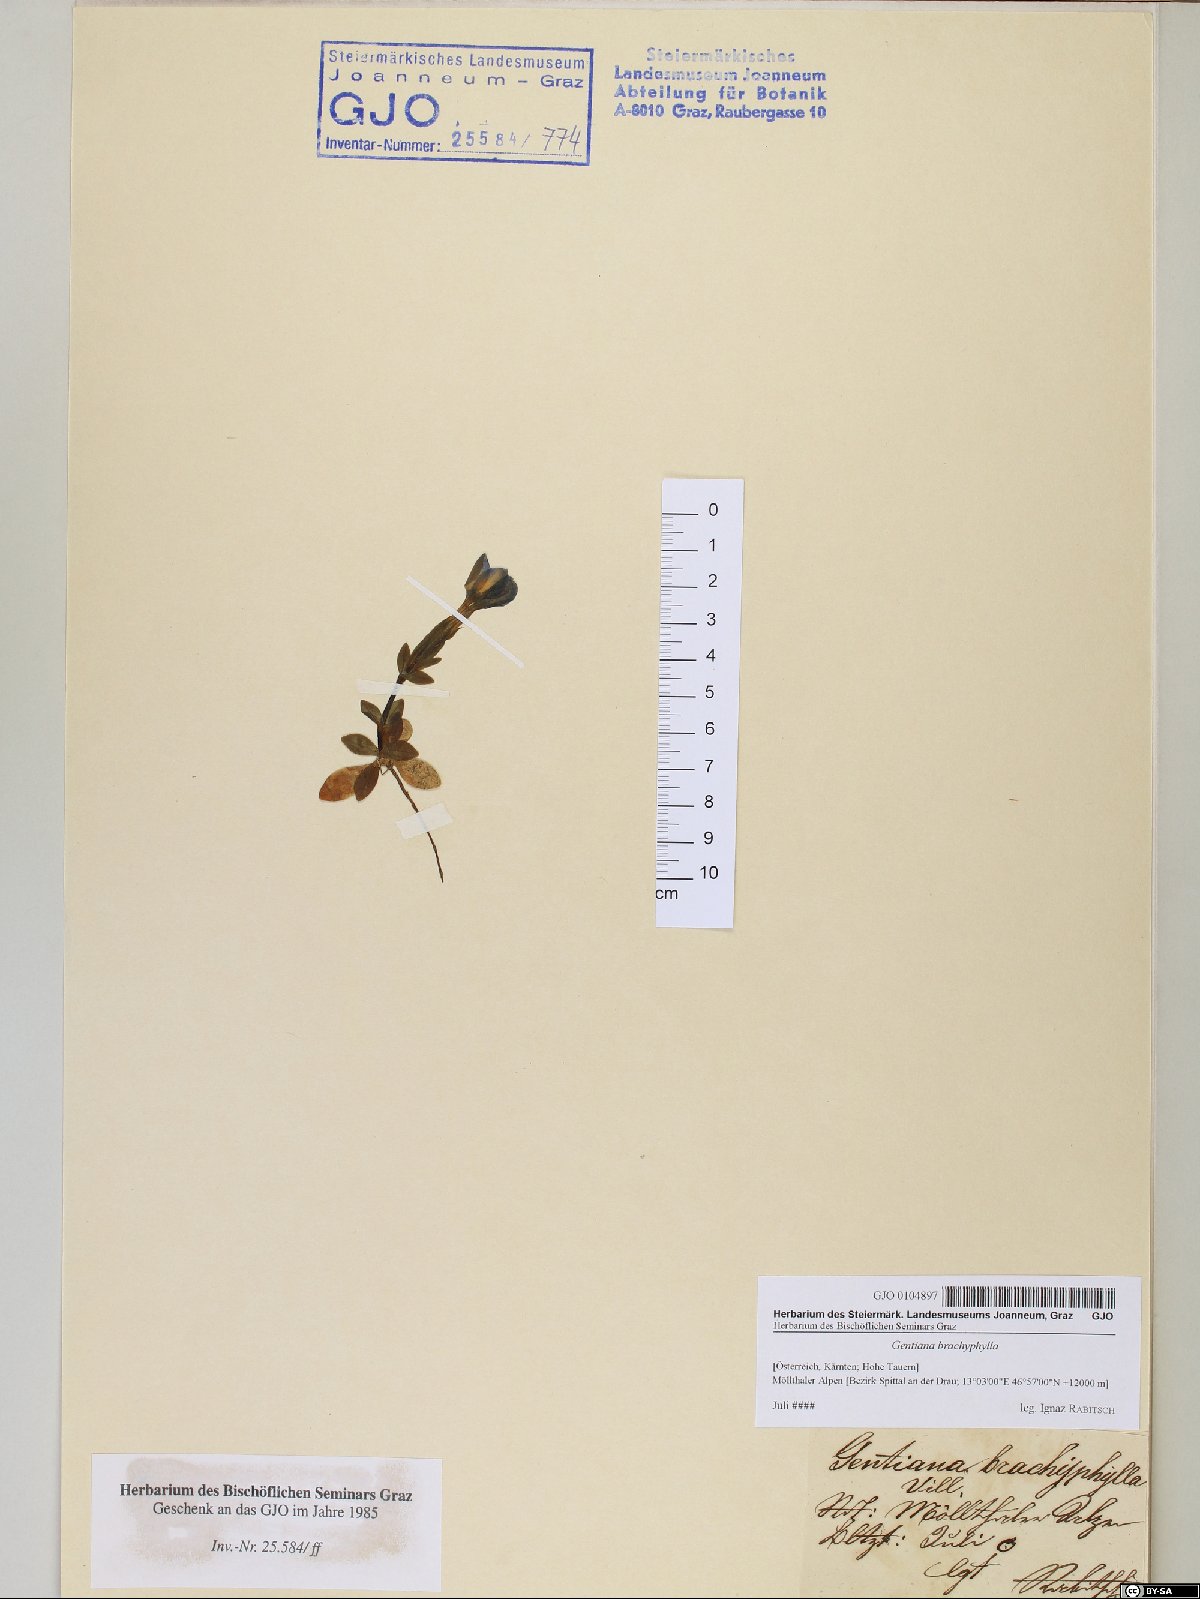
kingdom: Plantae
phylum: Tracheophyta
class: Magnoliopsida
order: Gentianales
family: Gentianaceae
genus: Gentiana
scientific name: Gentiana brachyphylla
